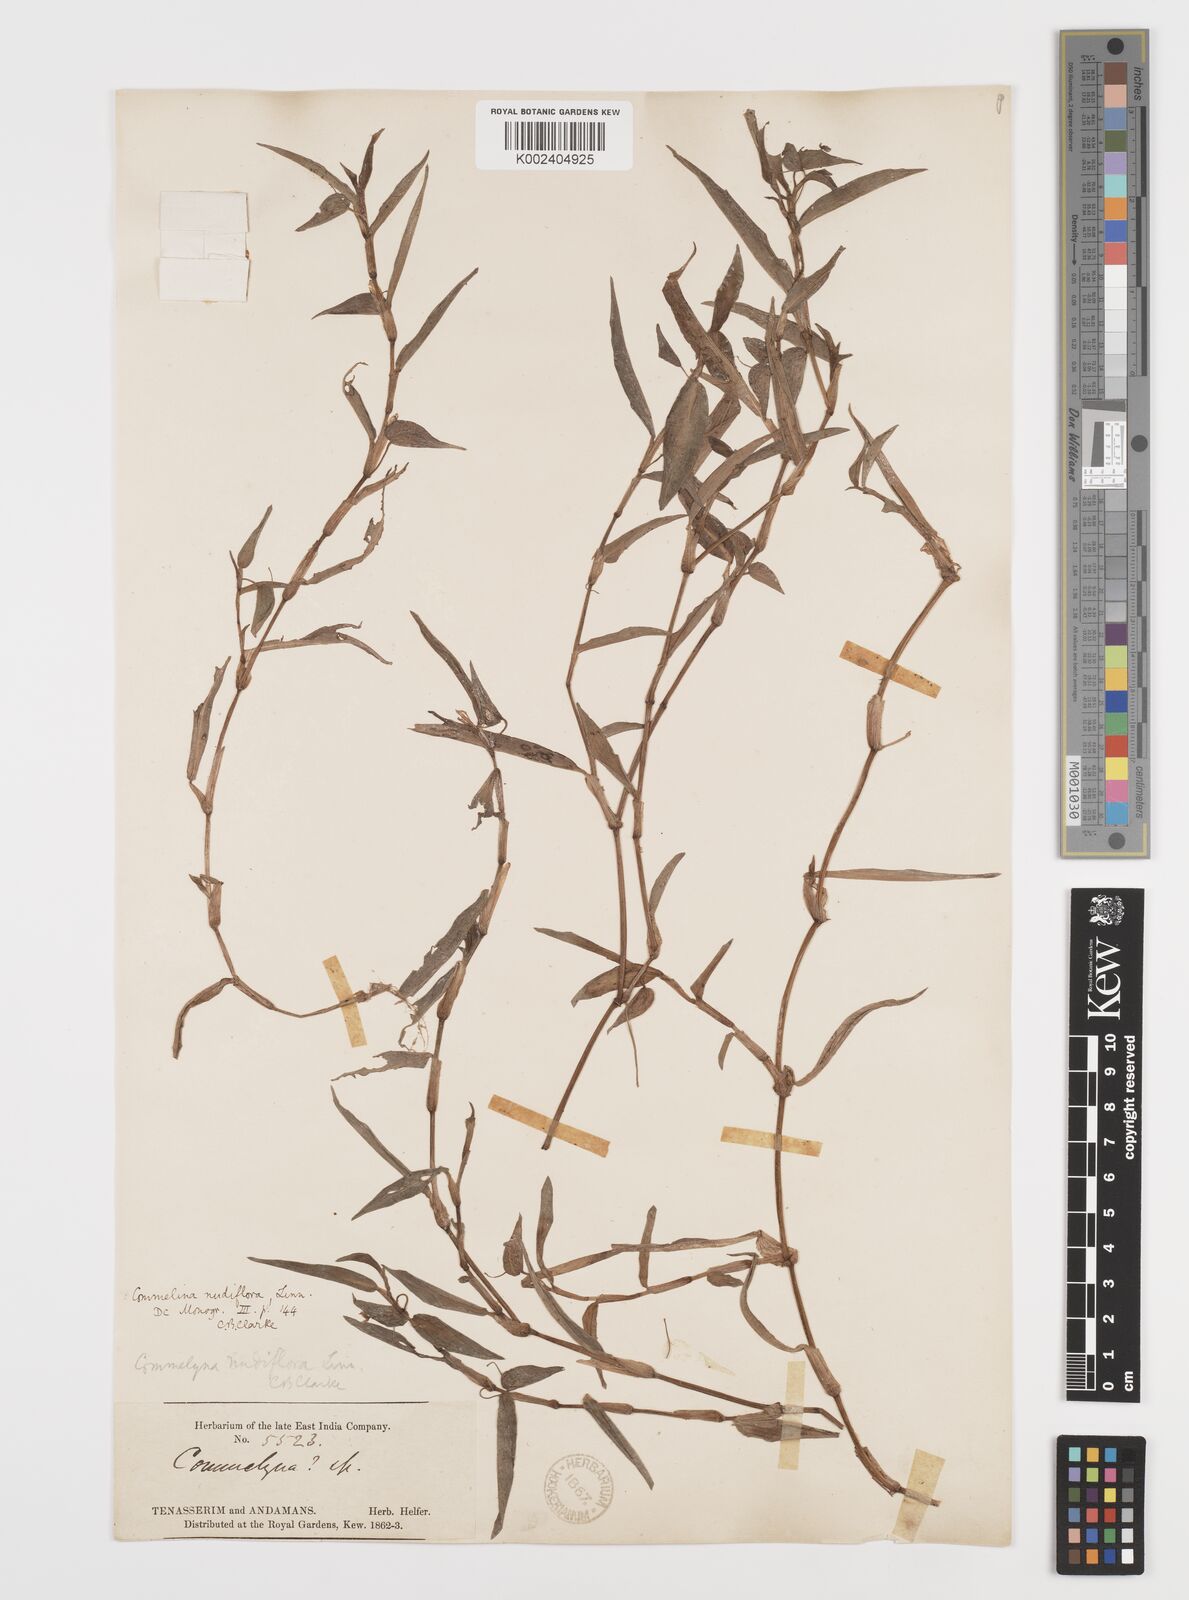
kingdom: Plantae
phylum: Tracheophyta
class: Liliopsida
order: Commelinales
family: Commelinaceae
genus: Murdannia
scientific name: Murdannia nudiflora
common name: Nakedstem dewflower
